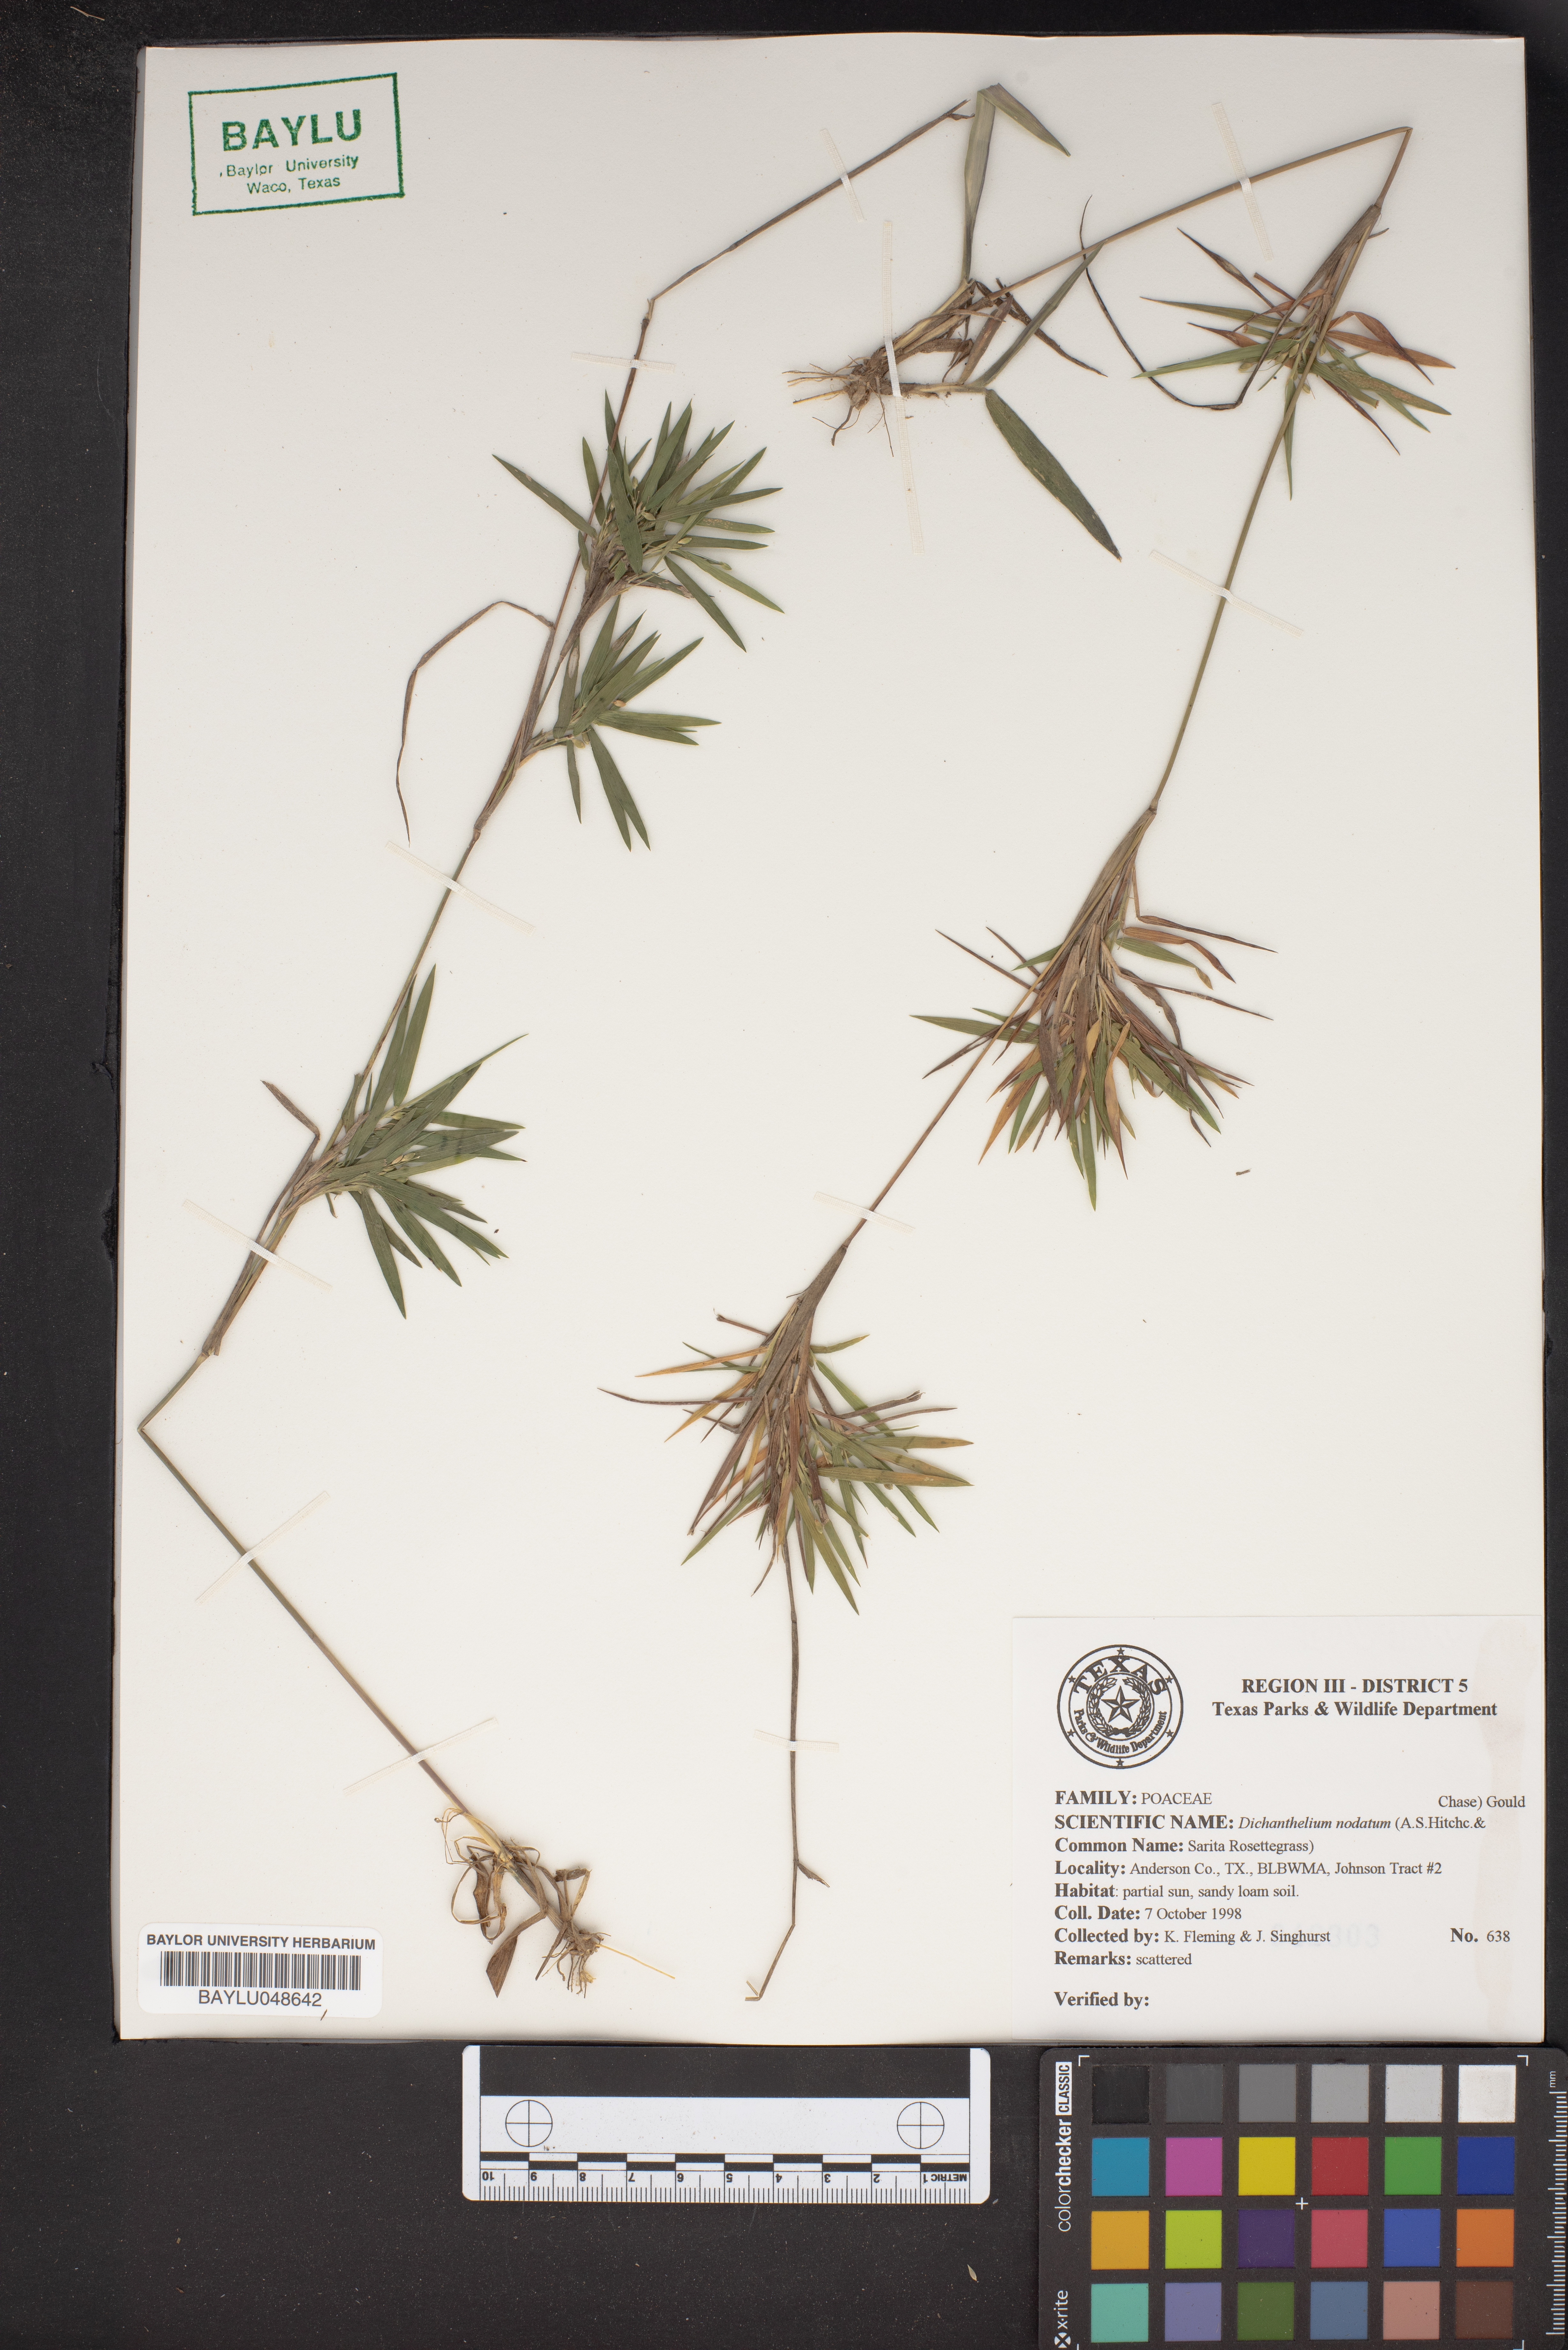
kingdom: Plantae
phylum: Tracheophyta
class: Liliopsida
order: Poales
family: Poaceae
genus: Dichanthelium
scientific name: Dichanthelium nodatum
